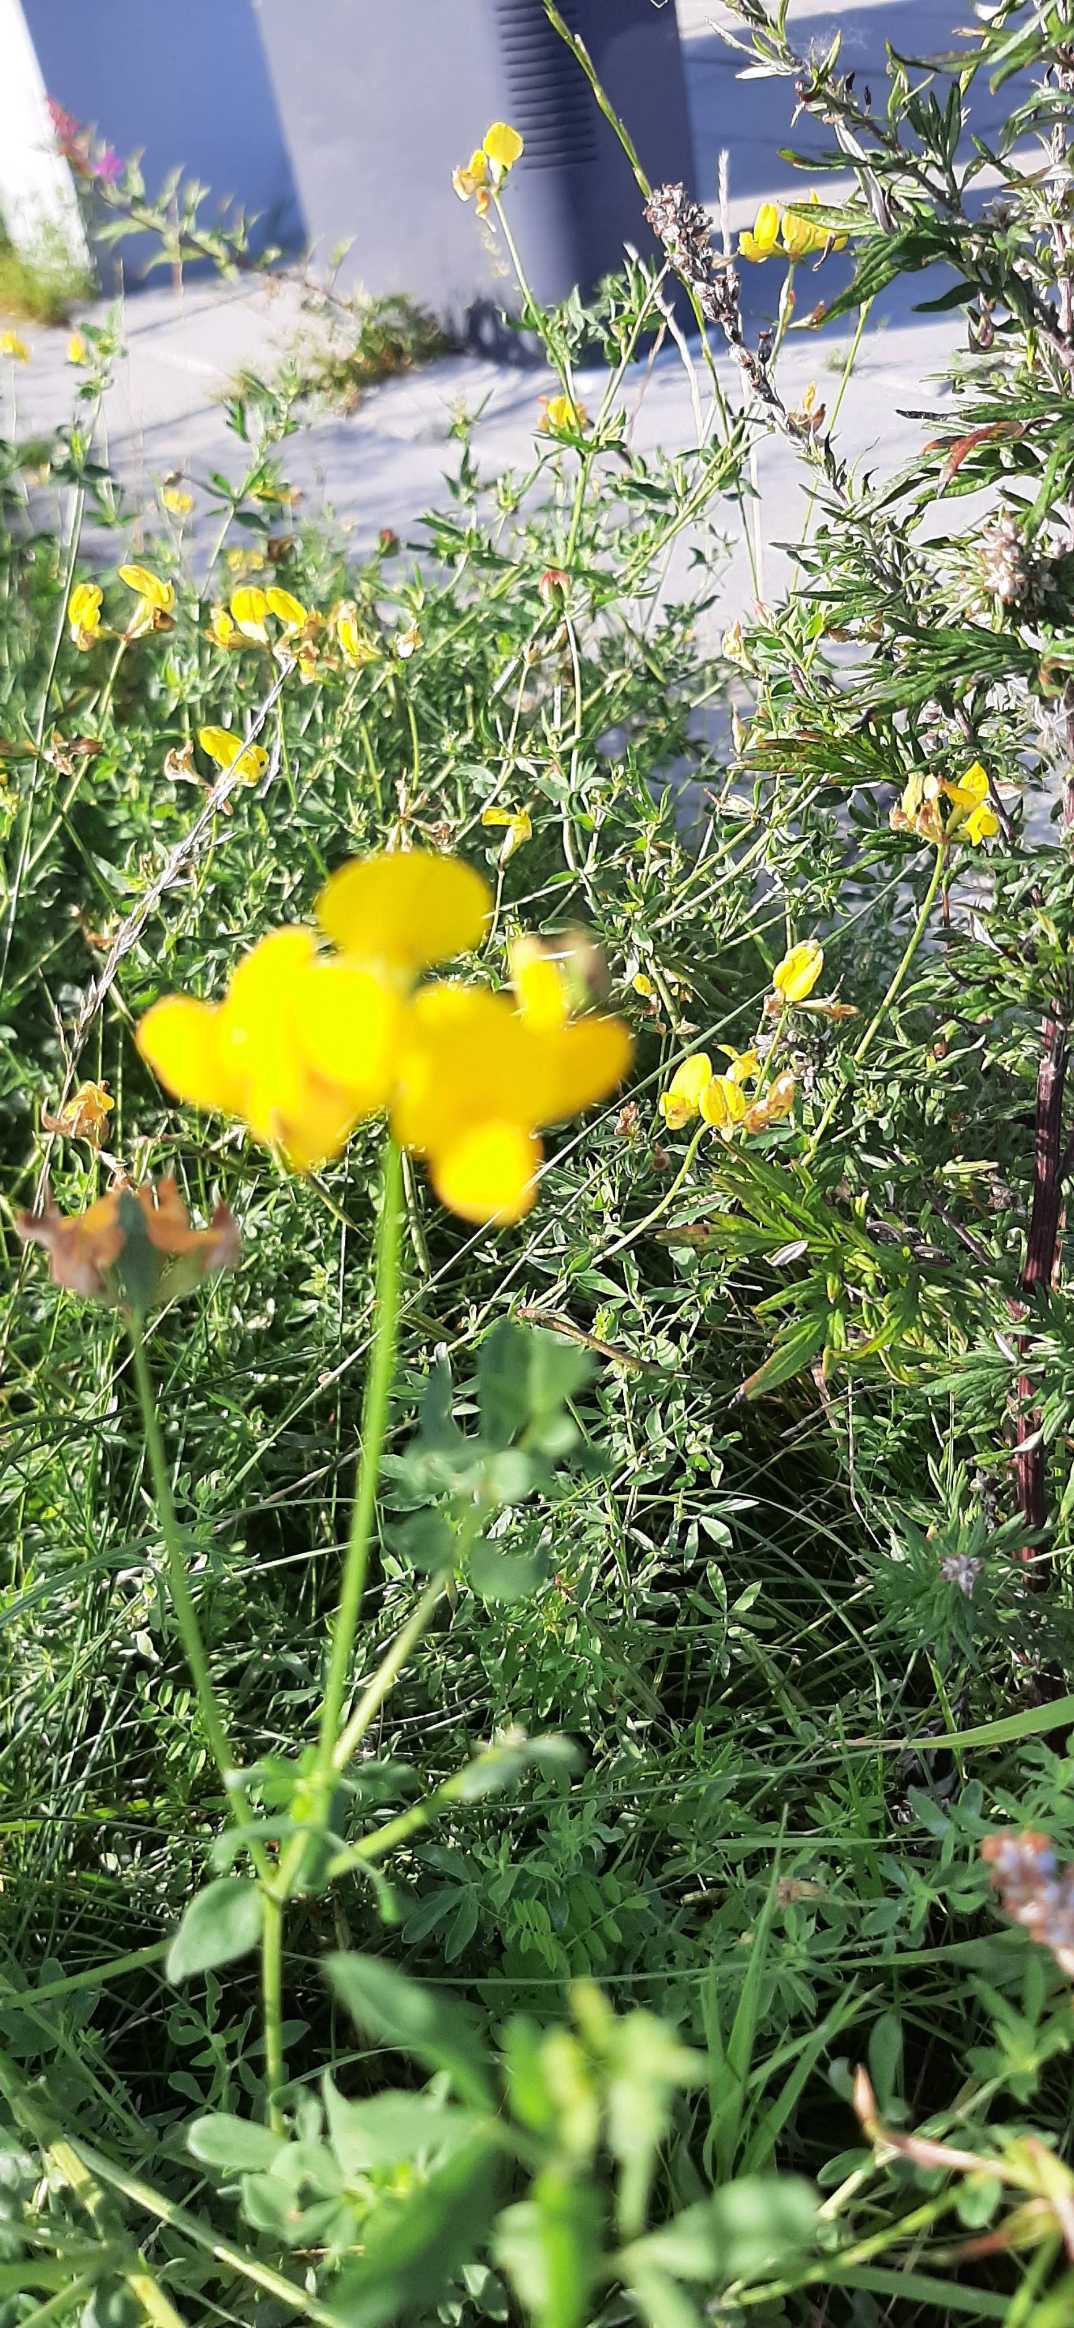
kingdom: Plantae
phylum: Tracheophyta
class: Magnoliopsida
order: Fabales
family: Fabaceae
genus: Lotus
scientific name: Lotus corniculatus
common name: Almindelig kællingetand
